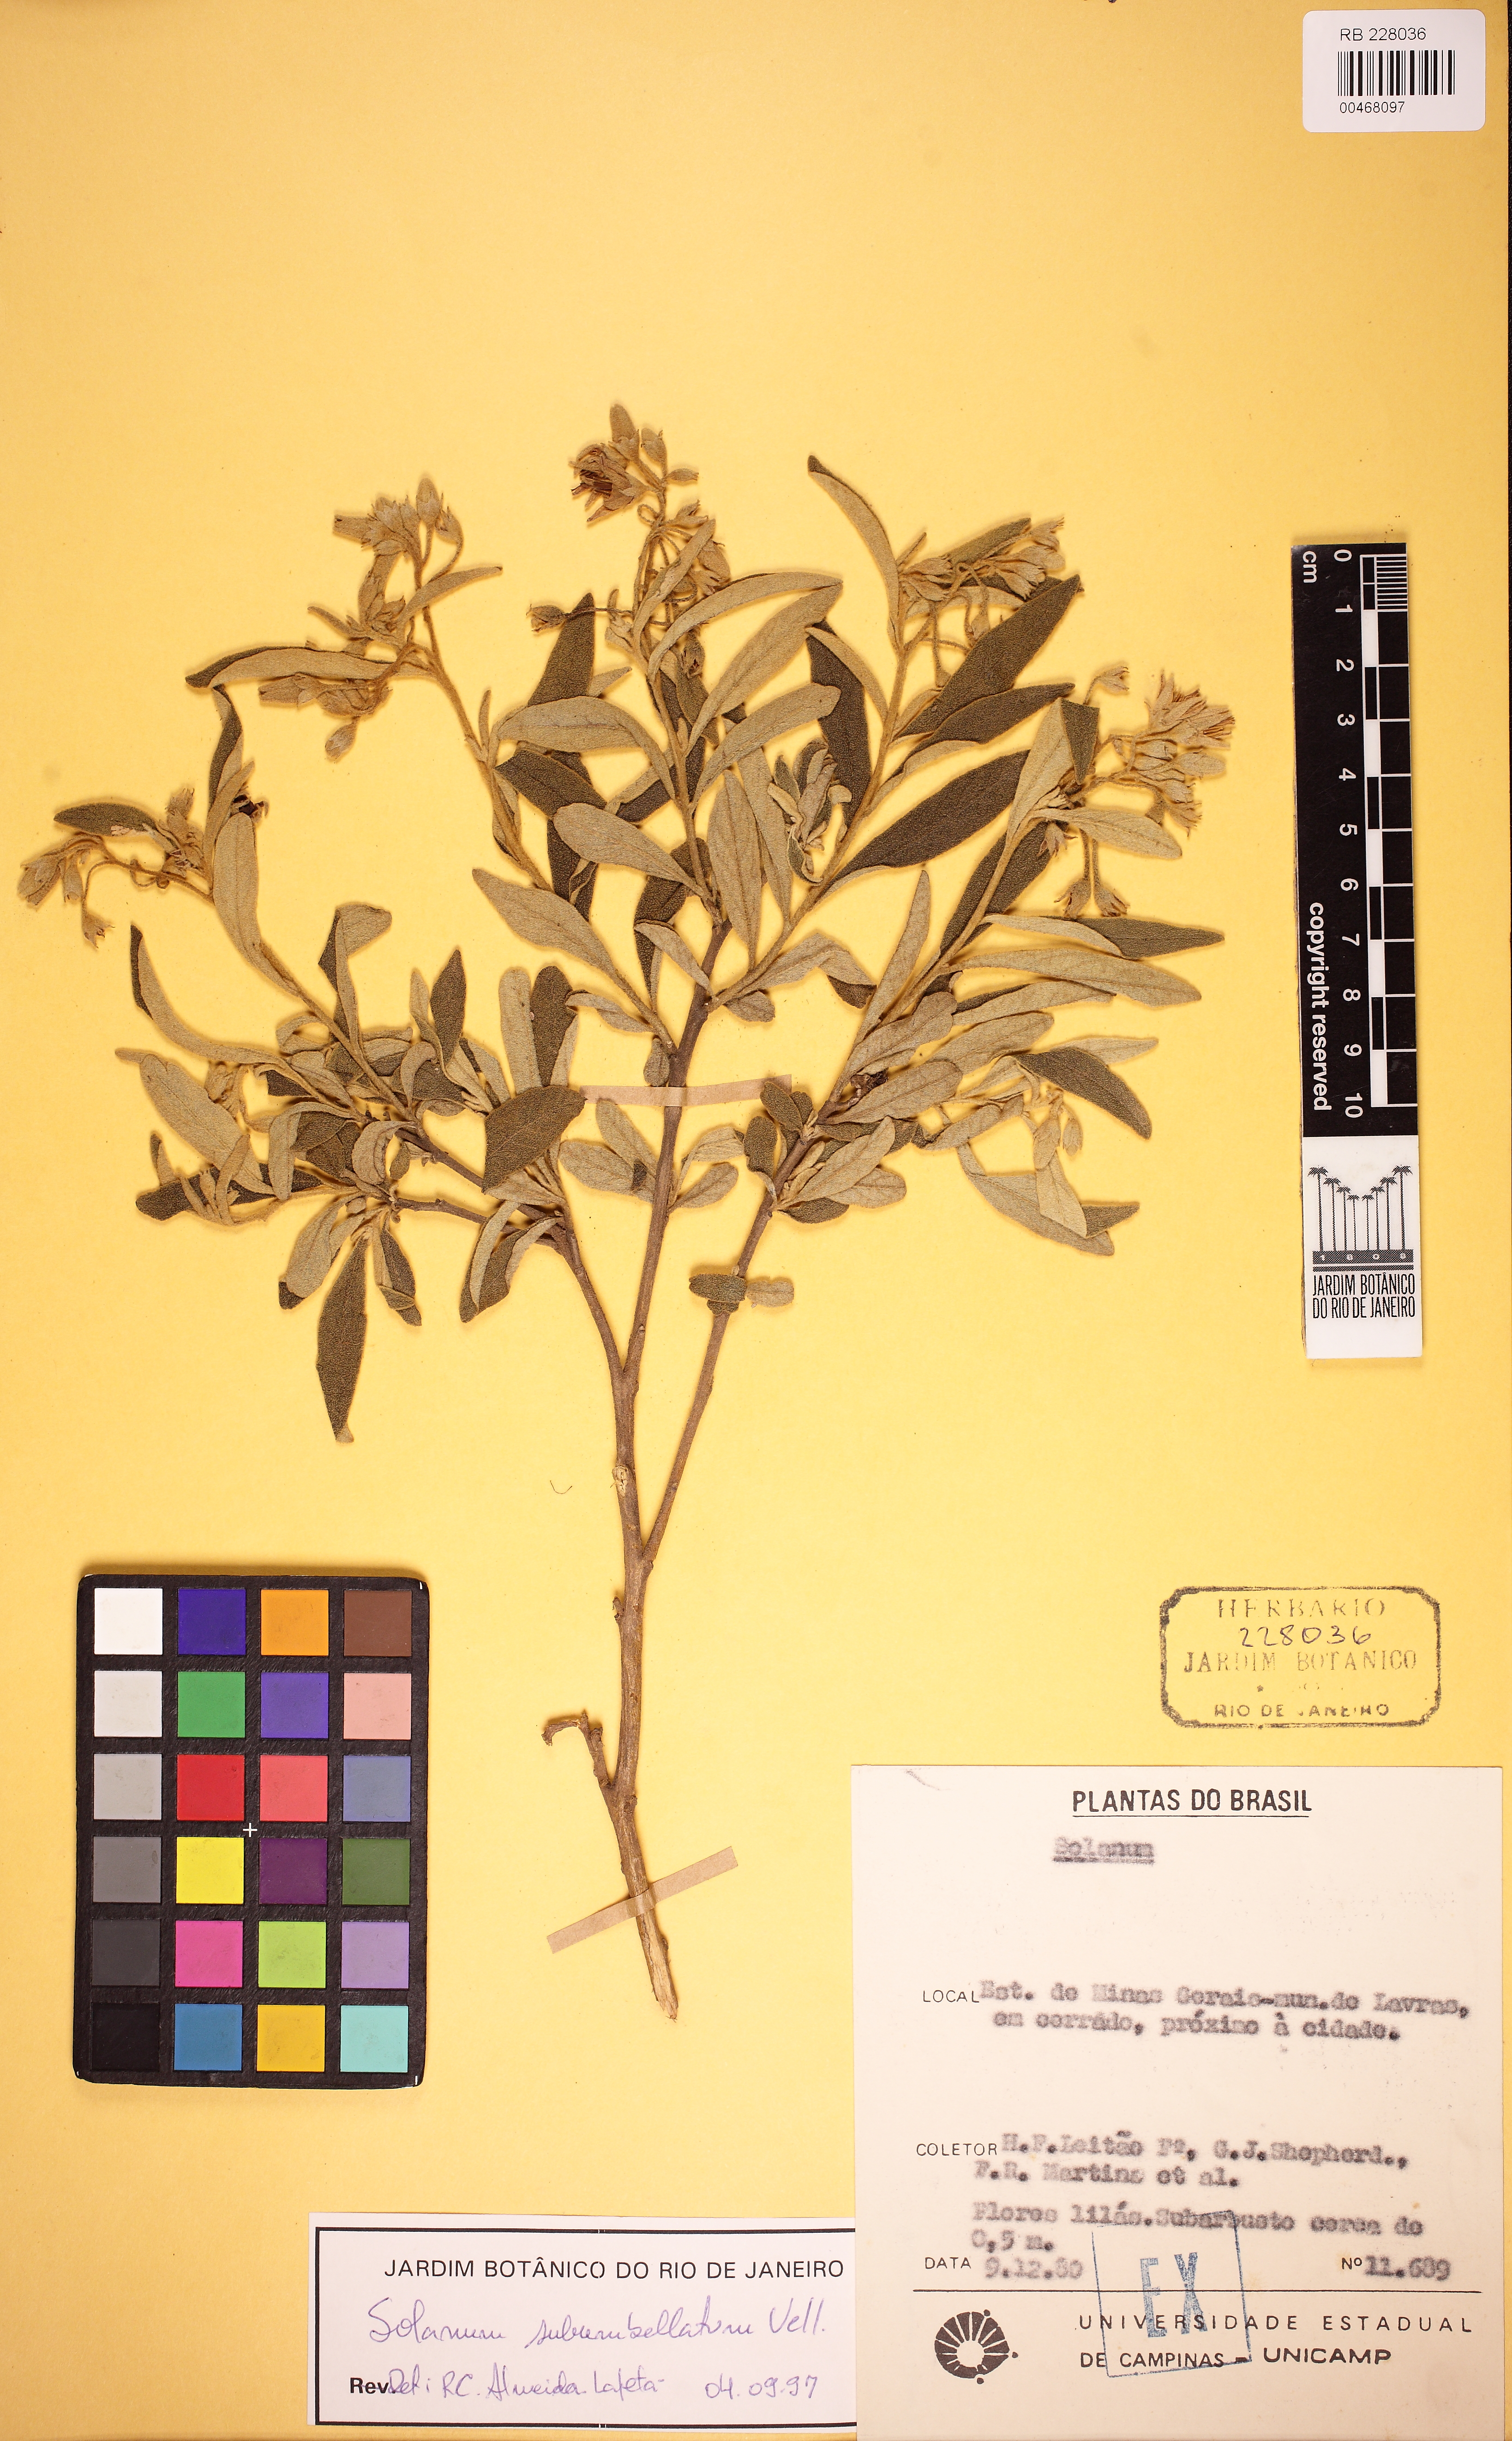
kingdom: Plantae
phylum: Tracheophyta
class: Magnoliopsida
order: Solanales
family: Solanaceae
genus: Solanum
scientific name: Solanum subumbellatum
